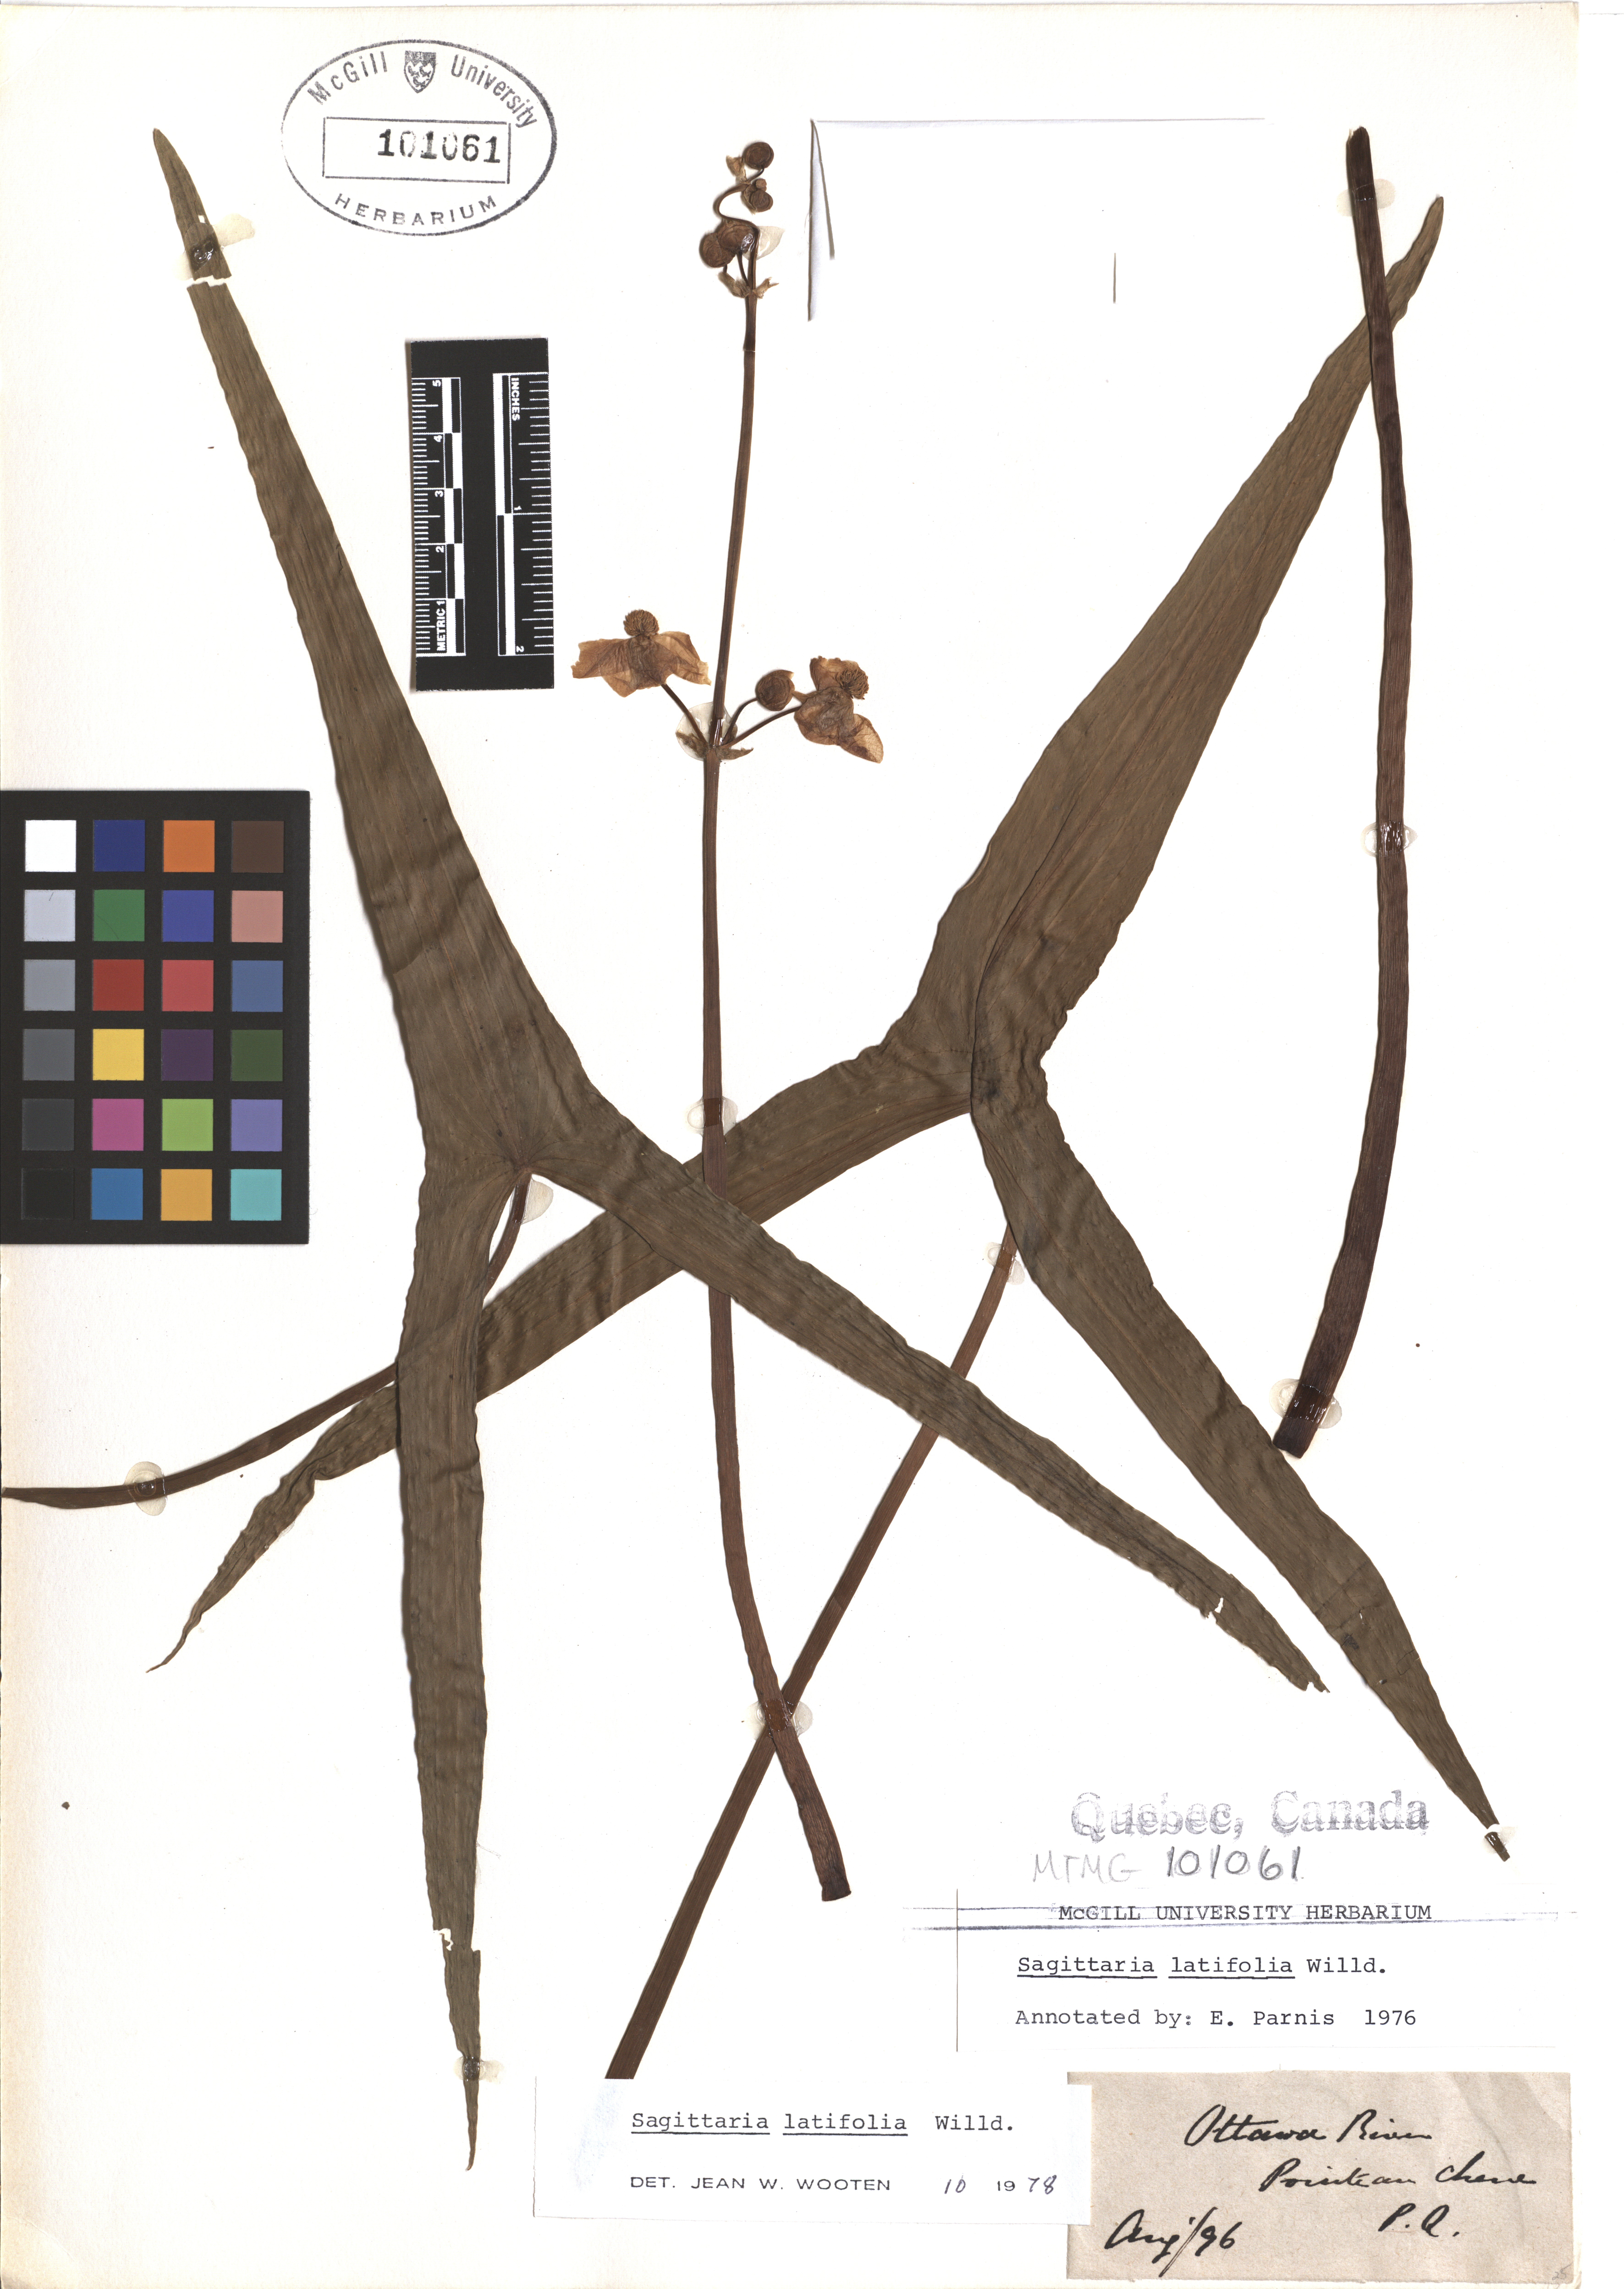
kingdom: Plantae
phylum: Tracheophyta
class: Liliopsida
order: Alismatales
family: Alismataceae
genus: Sagittaria
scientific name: Sagittaria latifolia
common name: Duck-potato
